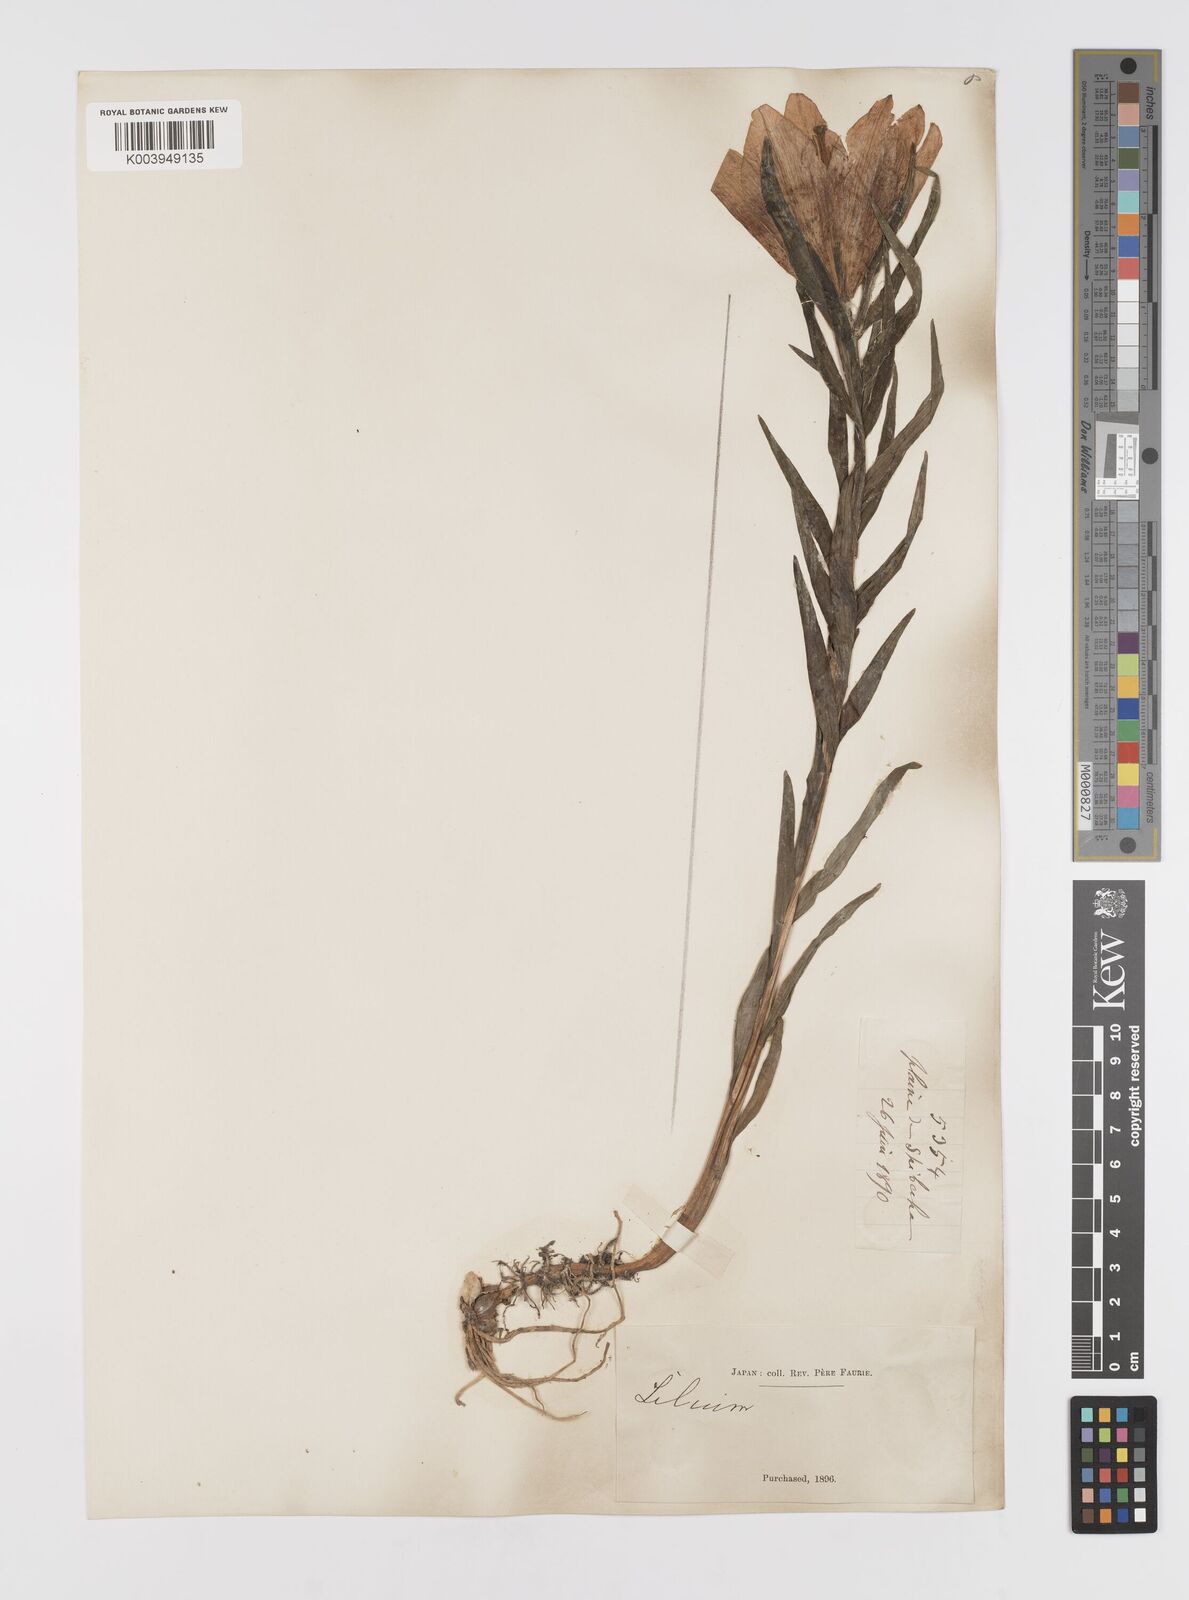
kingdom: Plantae
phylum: Tracheophyta
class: Liliopsida
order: Liliales
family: Liliaceae
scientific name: Liliaceae
